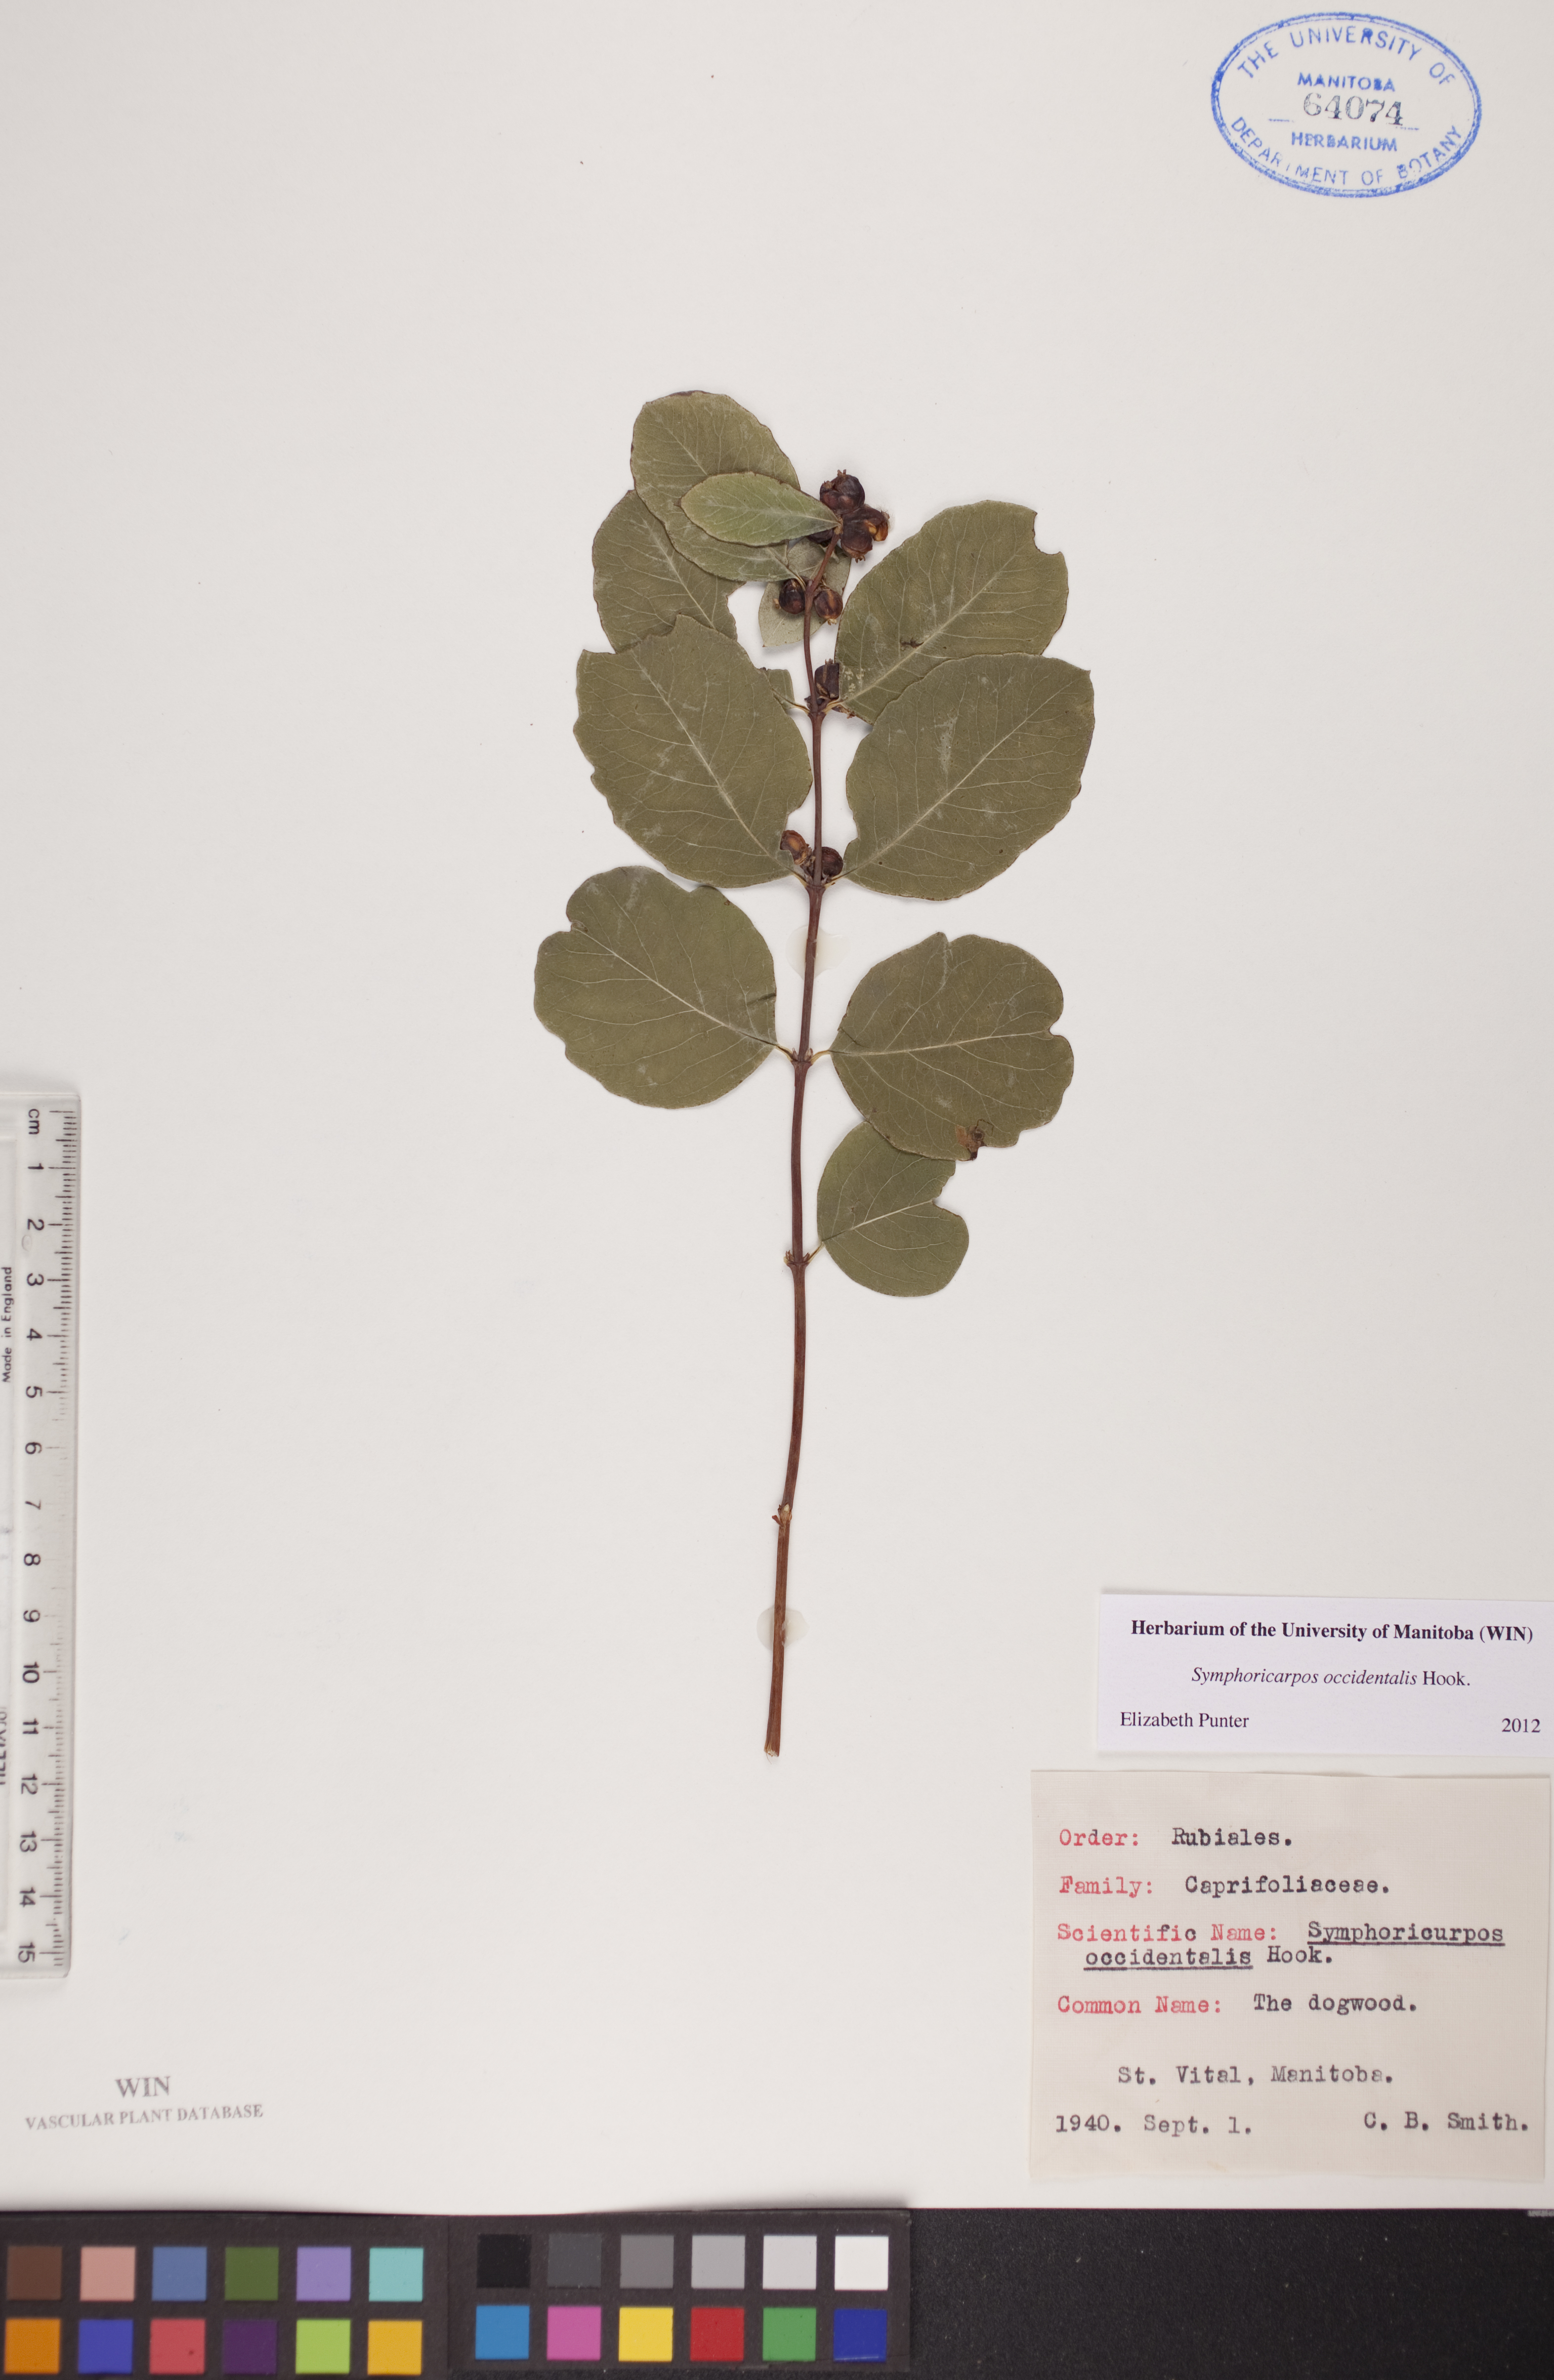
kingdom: Plantae
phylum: Tracheophyta
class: Magnoliopsida
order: Dipsacales
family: Caprifoliaceae
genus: Symphoricarpos
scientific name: Symphoricarpos occidentalis
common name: Wolfberry
